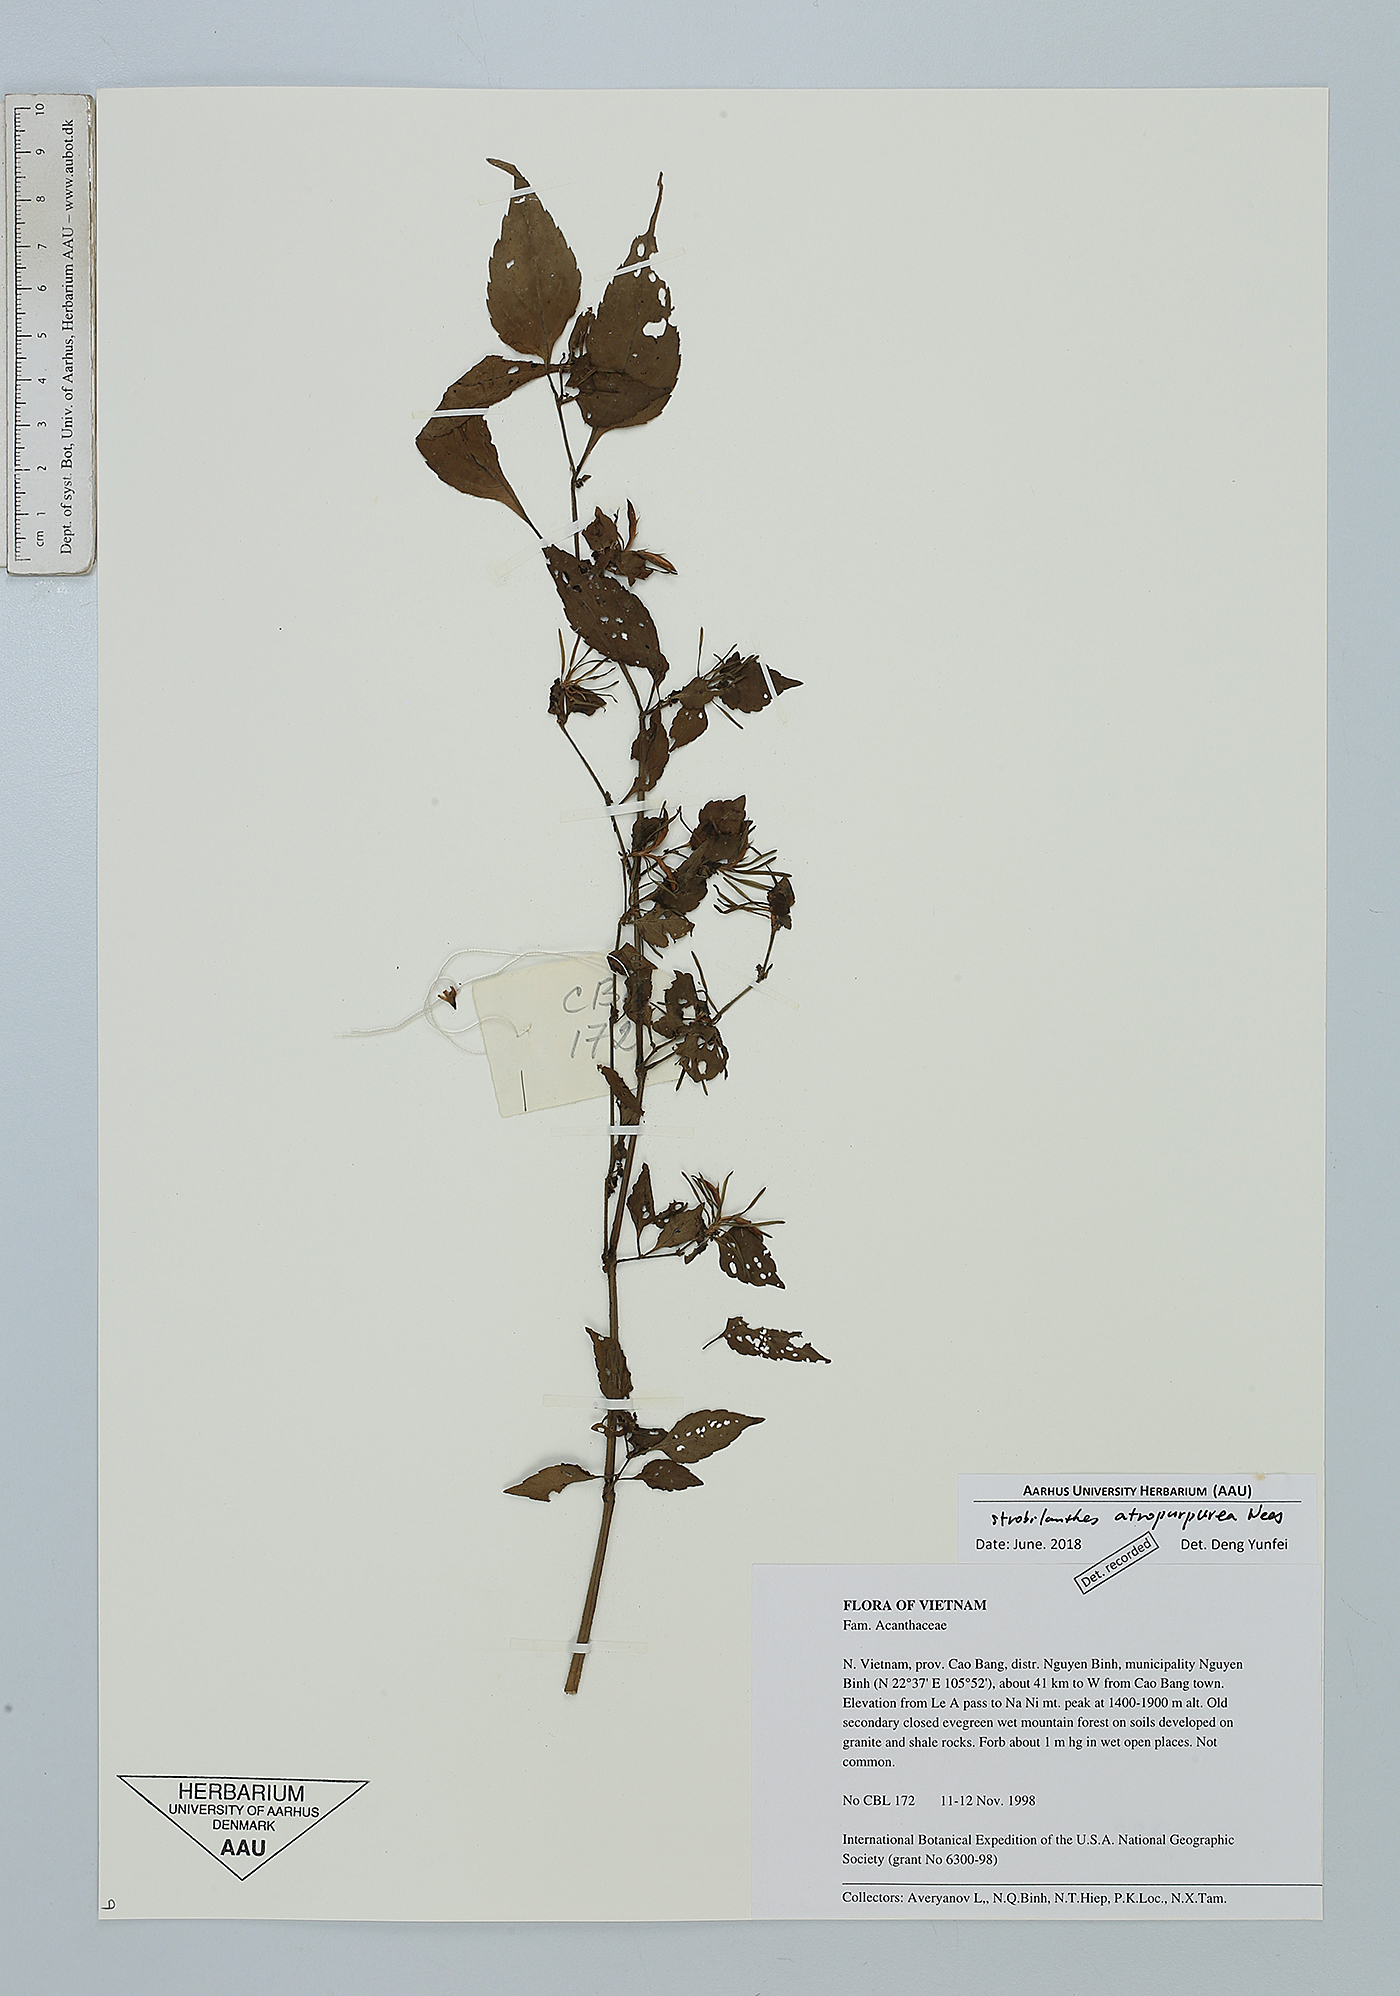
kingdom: Plantae
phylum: Tracheophyta
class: Magnoliopsida
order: Lamiales
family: Acanthaceae
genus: Strobilanthes
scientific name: Strobilanthes atropurpurea
